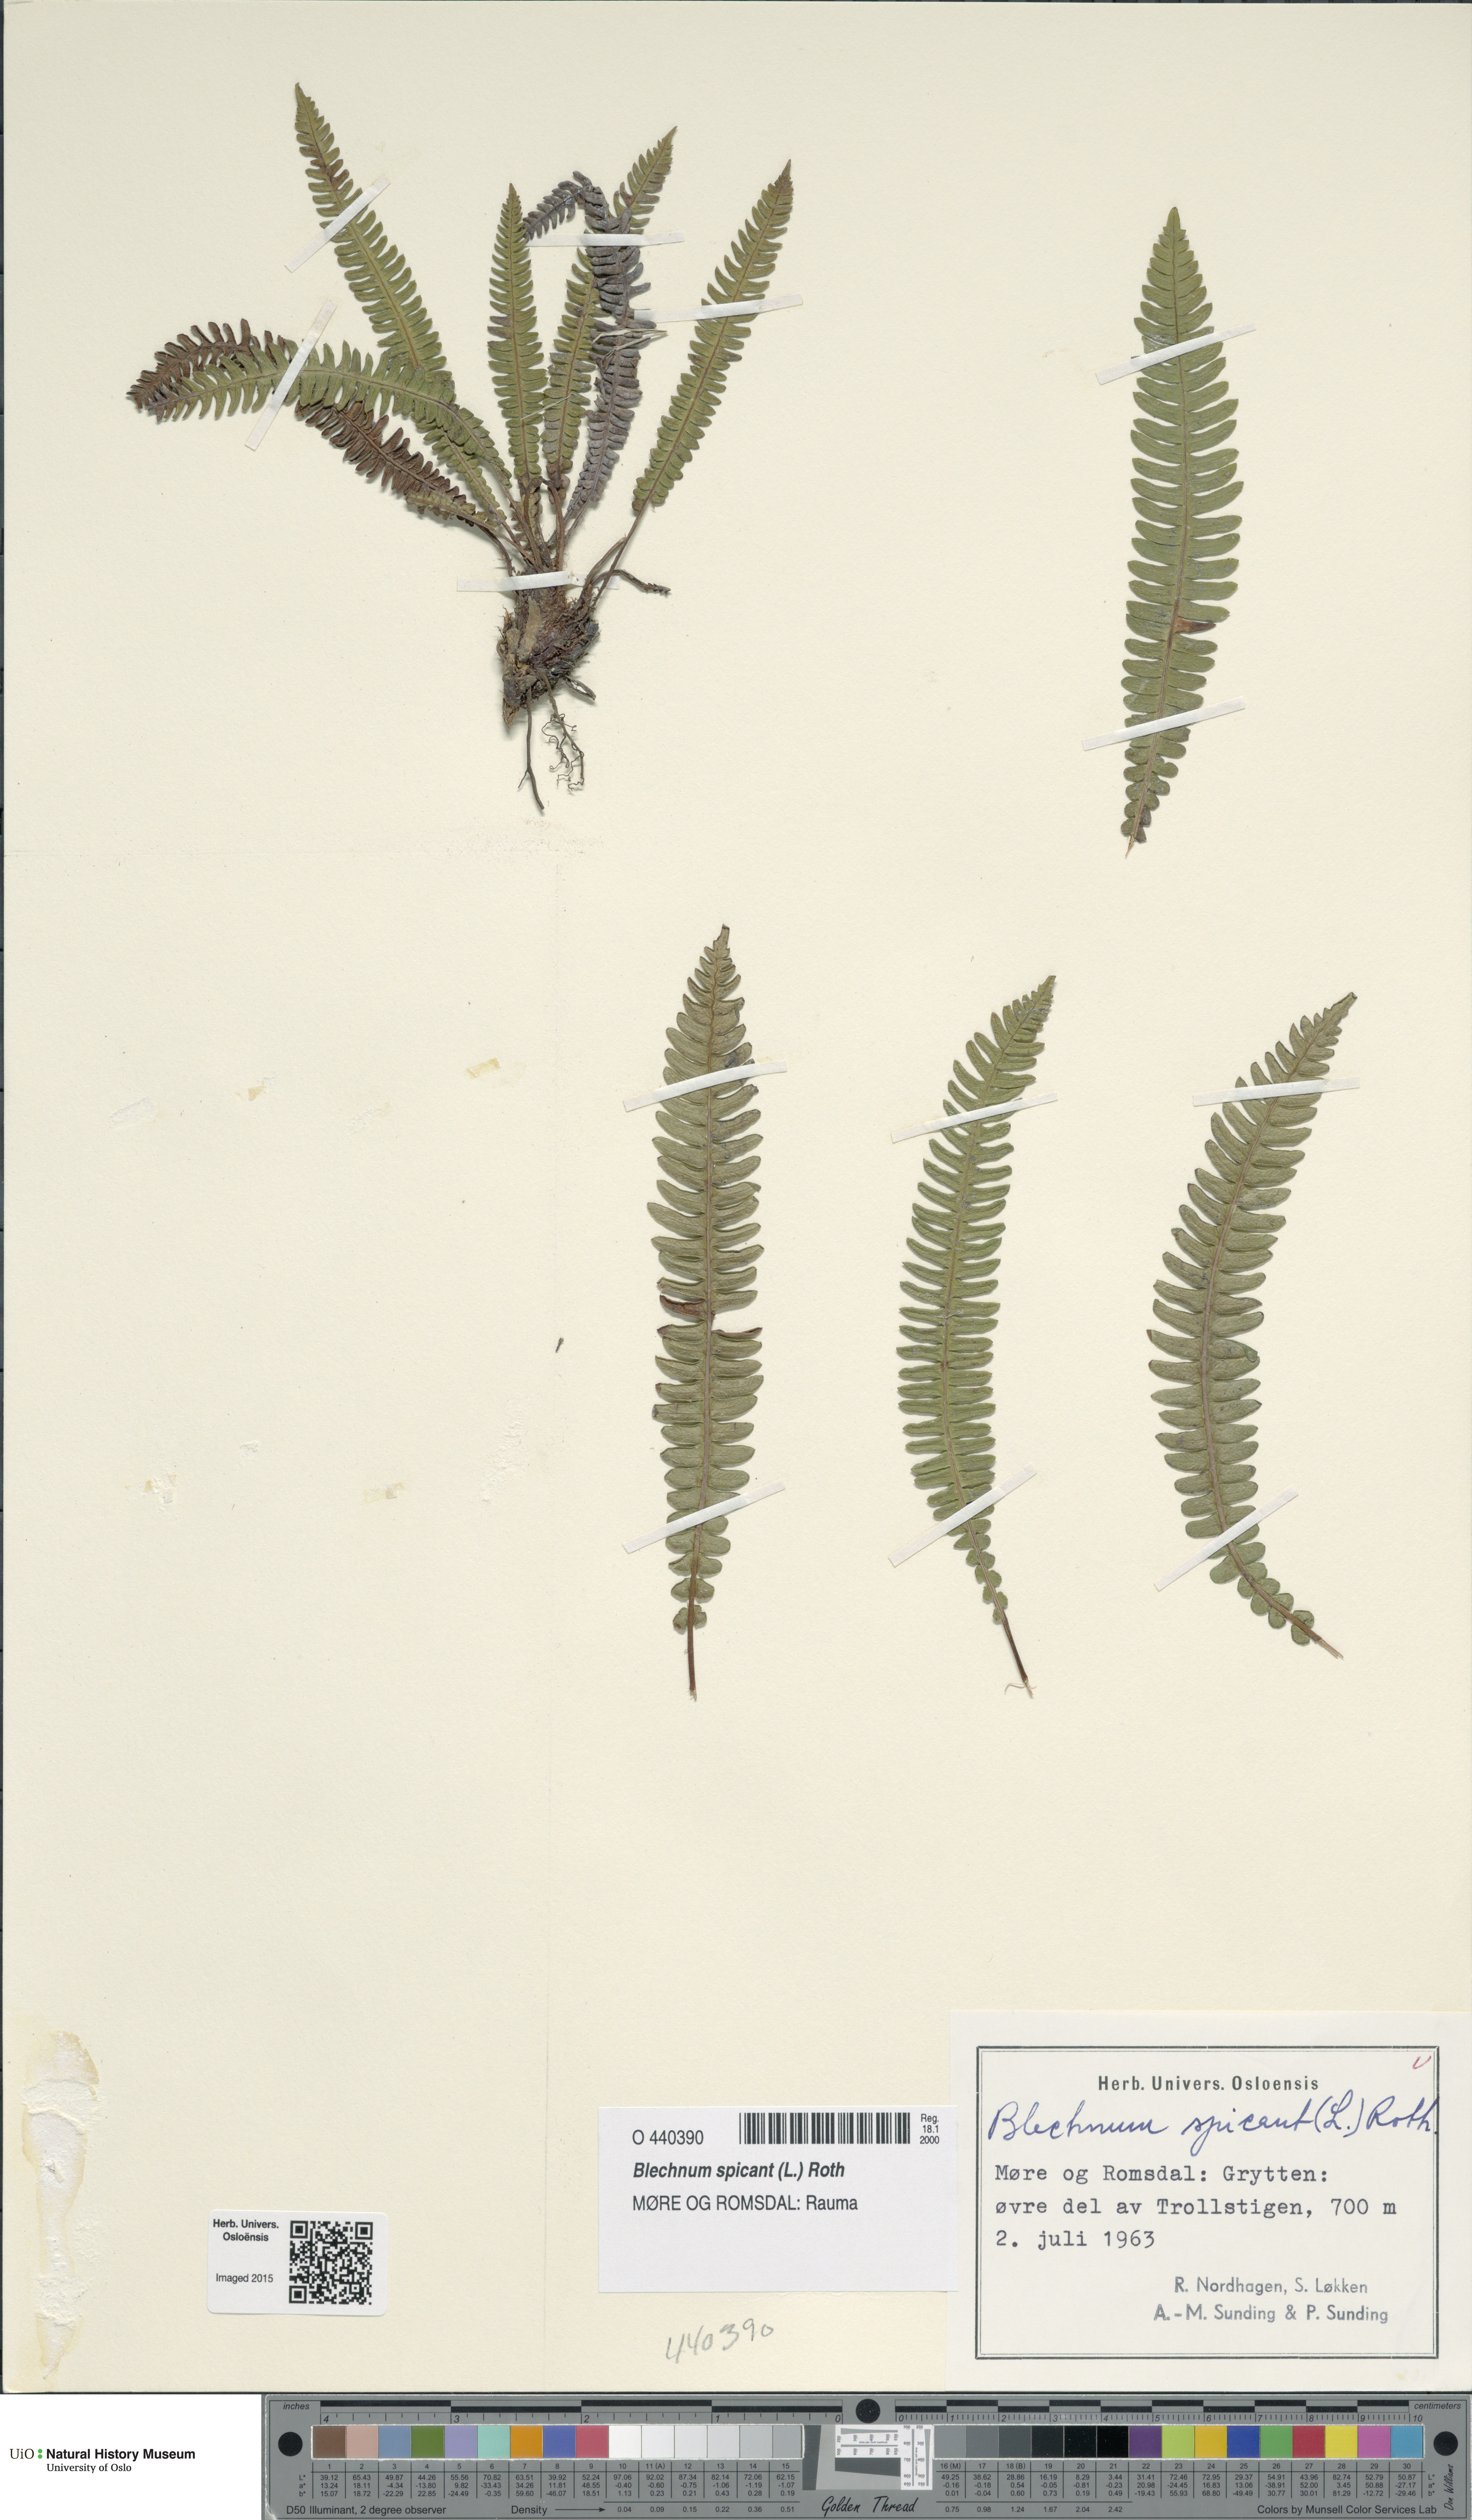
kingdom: Plantae
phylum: Tracheophyta
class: Polypodiopsida
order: Polypodiales
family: Blechnaceae
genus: Struthiopteris
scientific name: Struthiopteris spicant
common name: Deer fern
